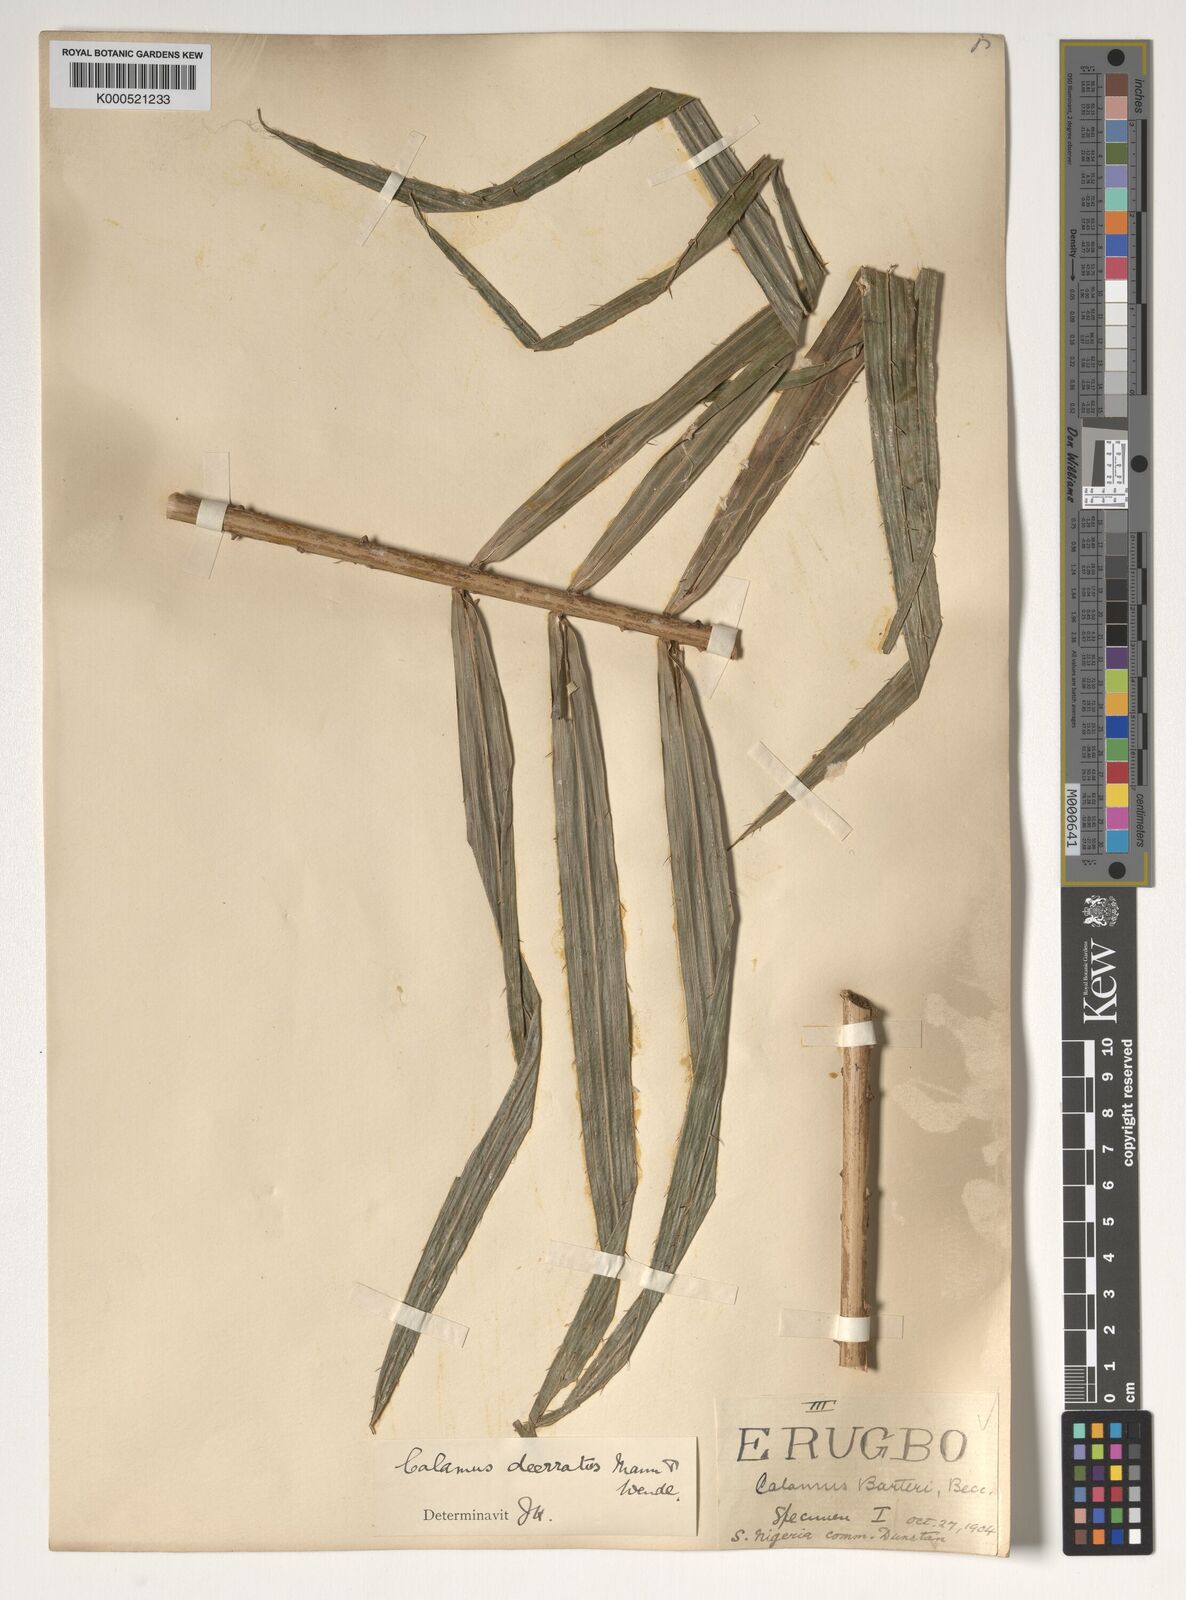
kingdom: Plantae
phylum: Tracheophyta
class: Liliopsida
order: Arecales
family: Arecaceae
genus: Calamus
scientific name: Calamus deerratus
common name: Rattan
